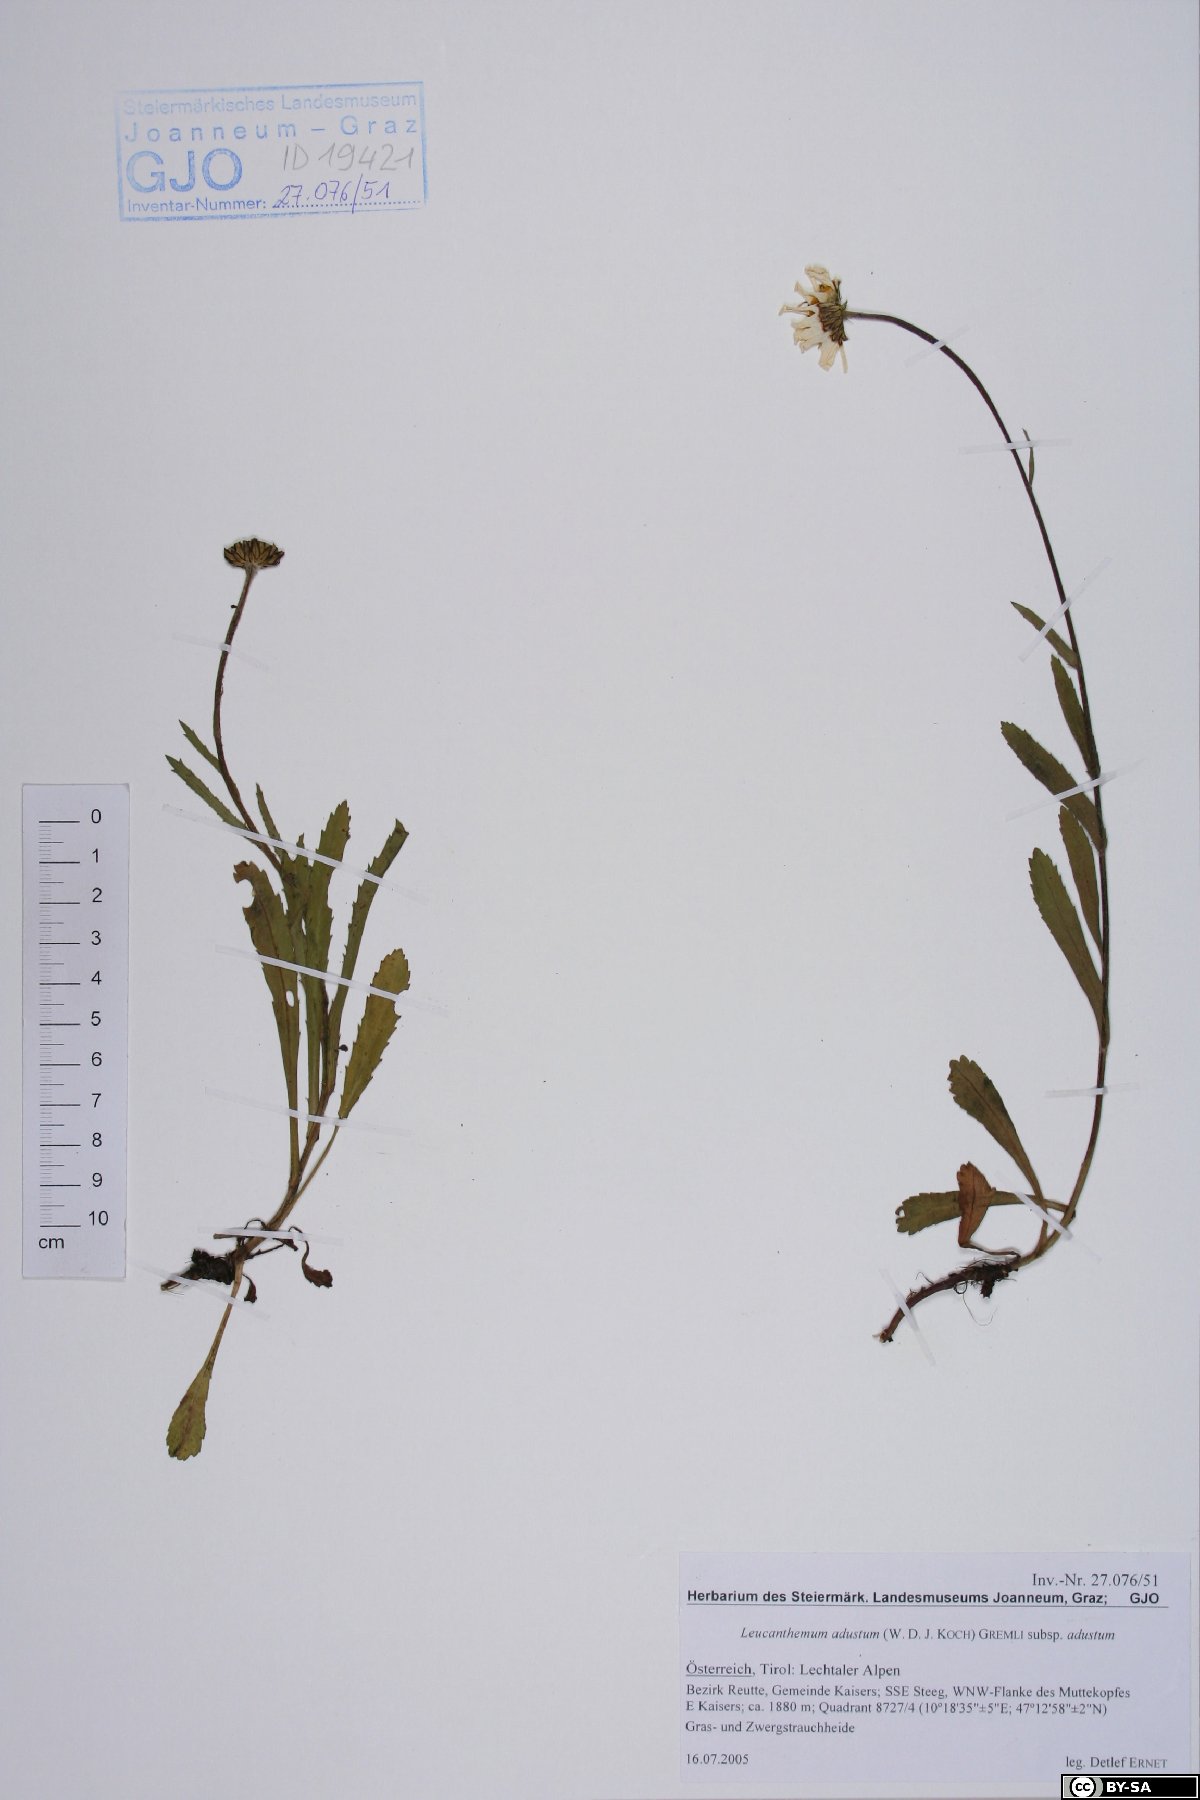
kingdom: Plantae
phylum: Tracheophyta
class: Magnoliopsida
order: Asterales
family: Asteraceae
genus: Leucanthemum
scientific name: Leucanthemum adustum
